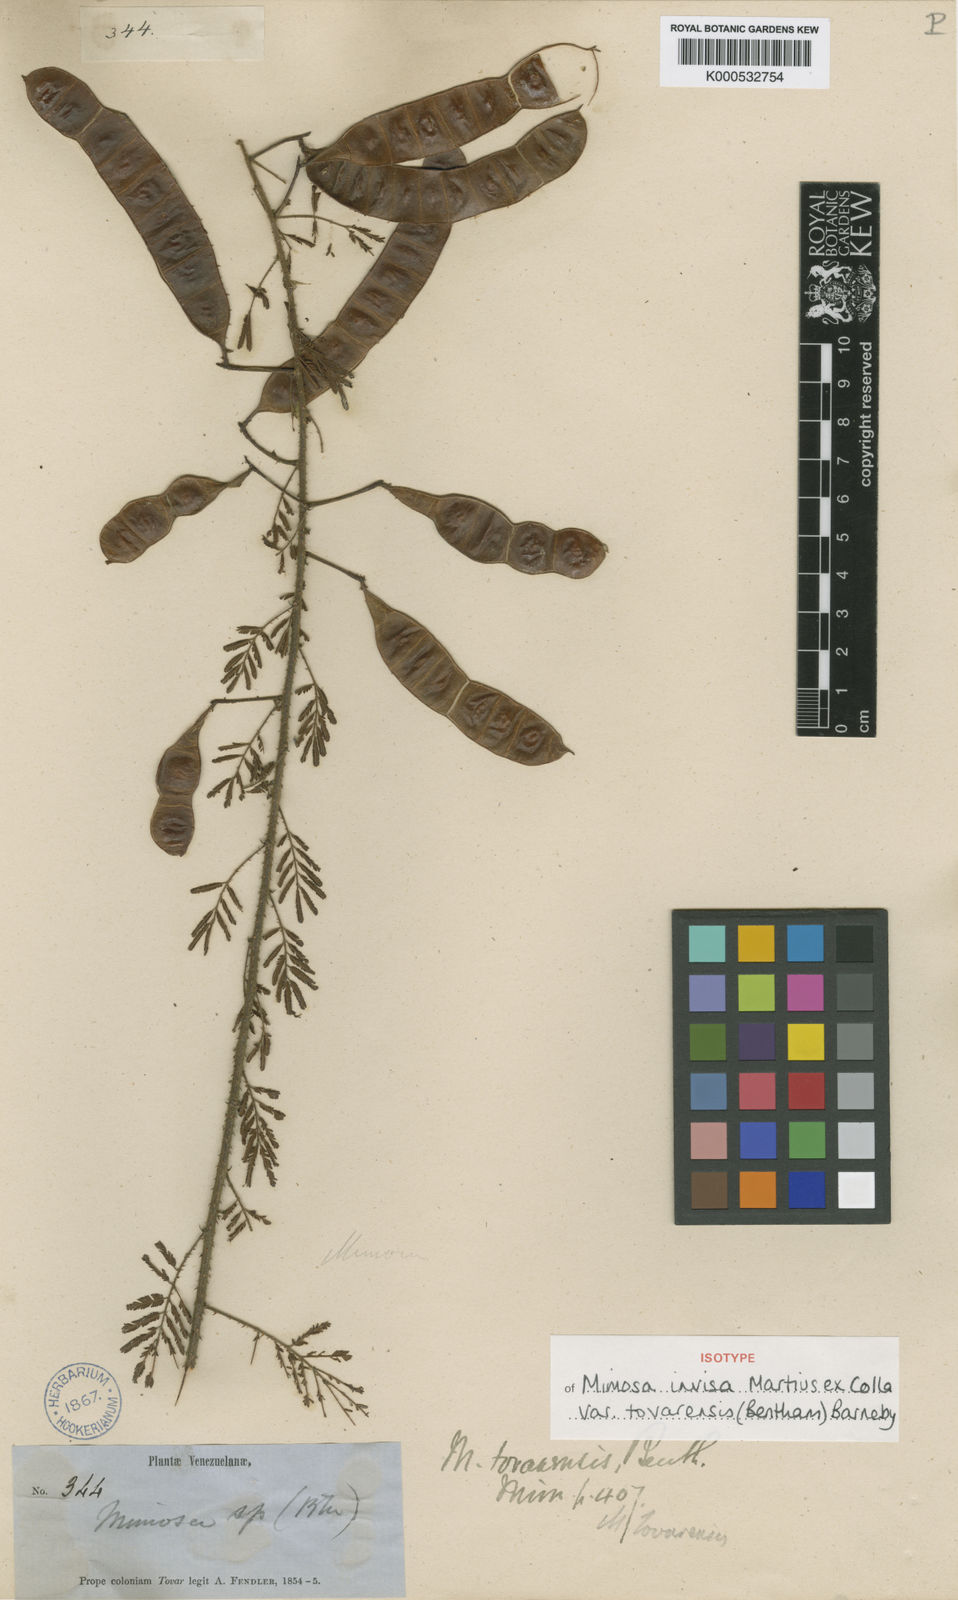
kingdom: Plantae
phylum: Tracheophyta
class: Magnoliopsida
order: Fabales
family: Fabaceae
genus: Mimosa
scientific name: Mimosa invisa
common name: Creeping sensitive-plant
